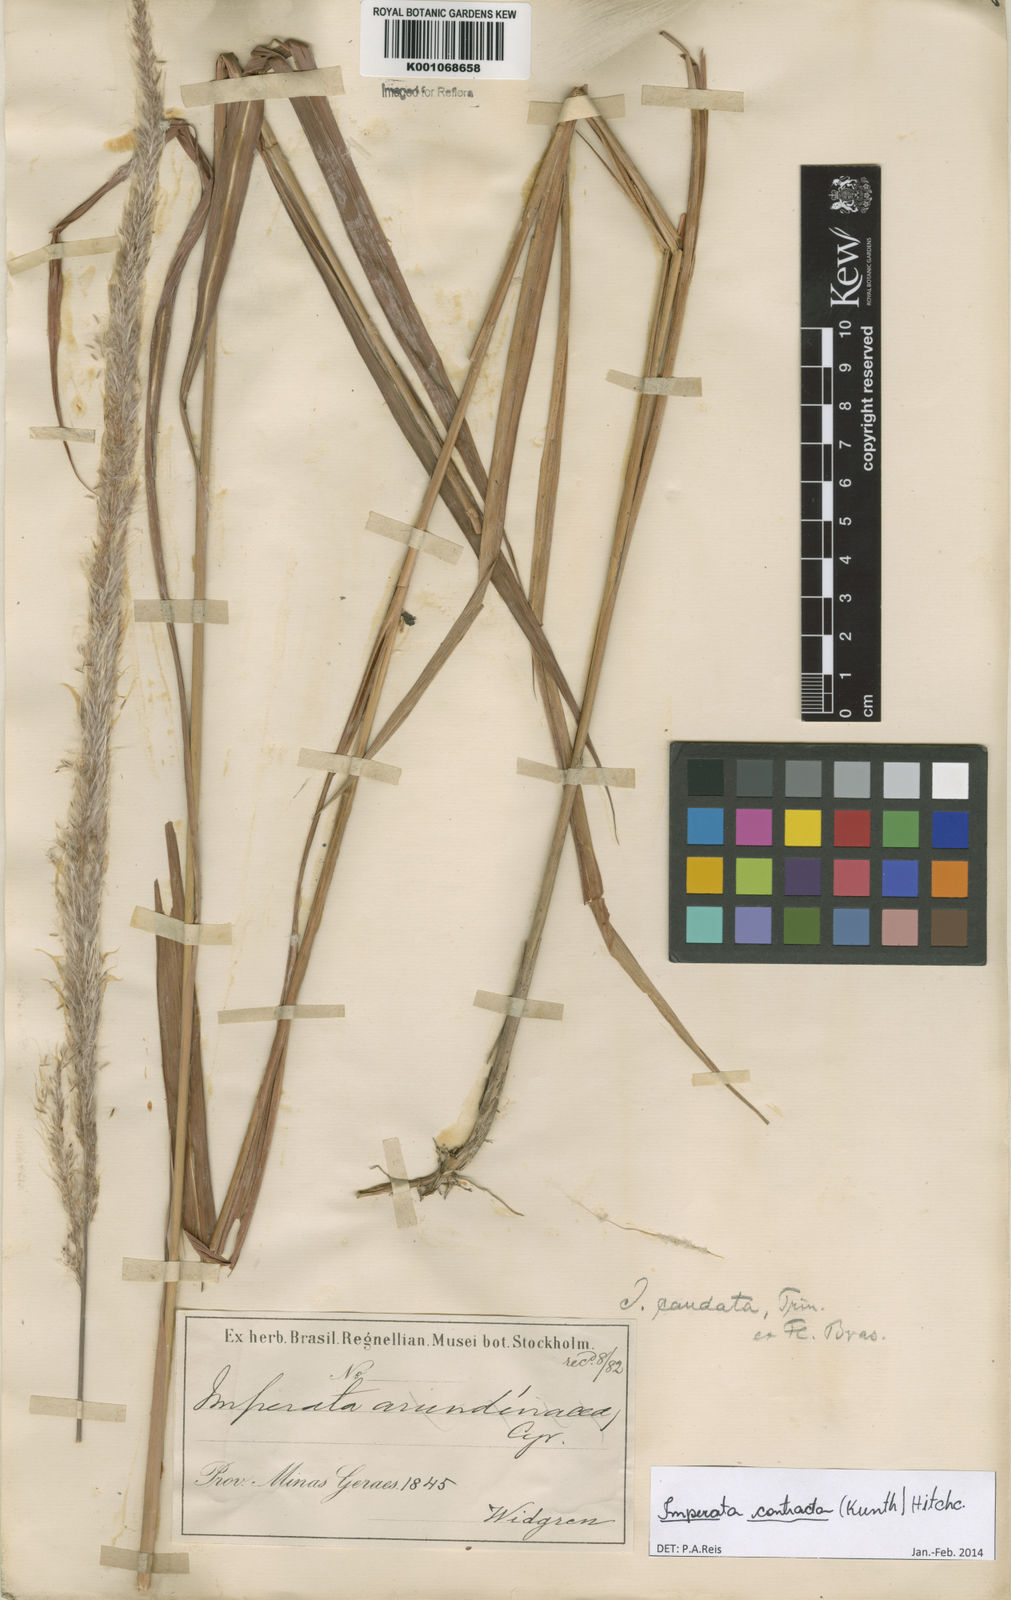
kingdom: Plantae
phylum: Tracheophyta
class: Liliopsida
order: Poales
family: Poaceae
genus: Imperata
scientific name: Imperata contracta
